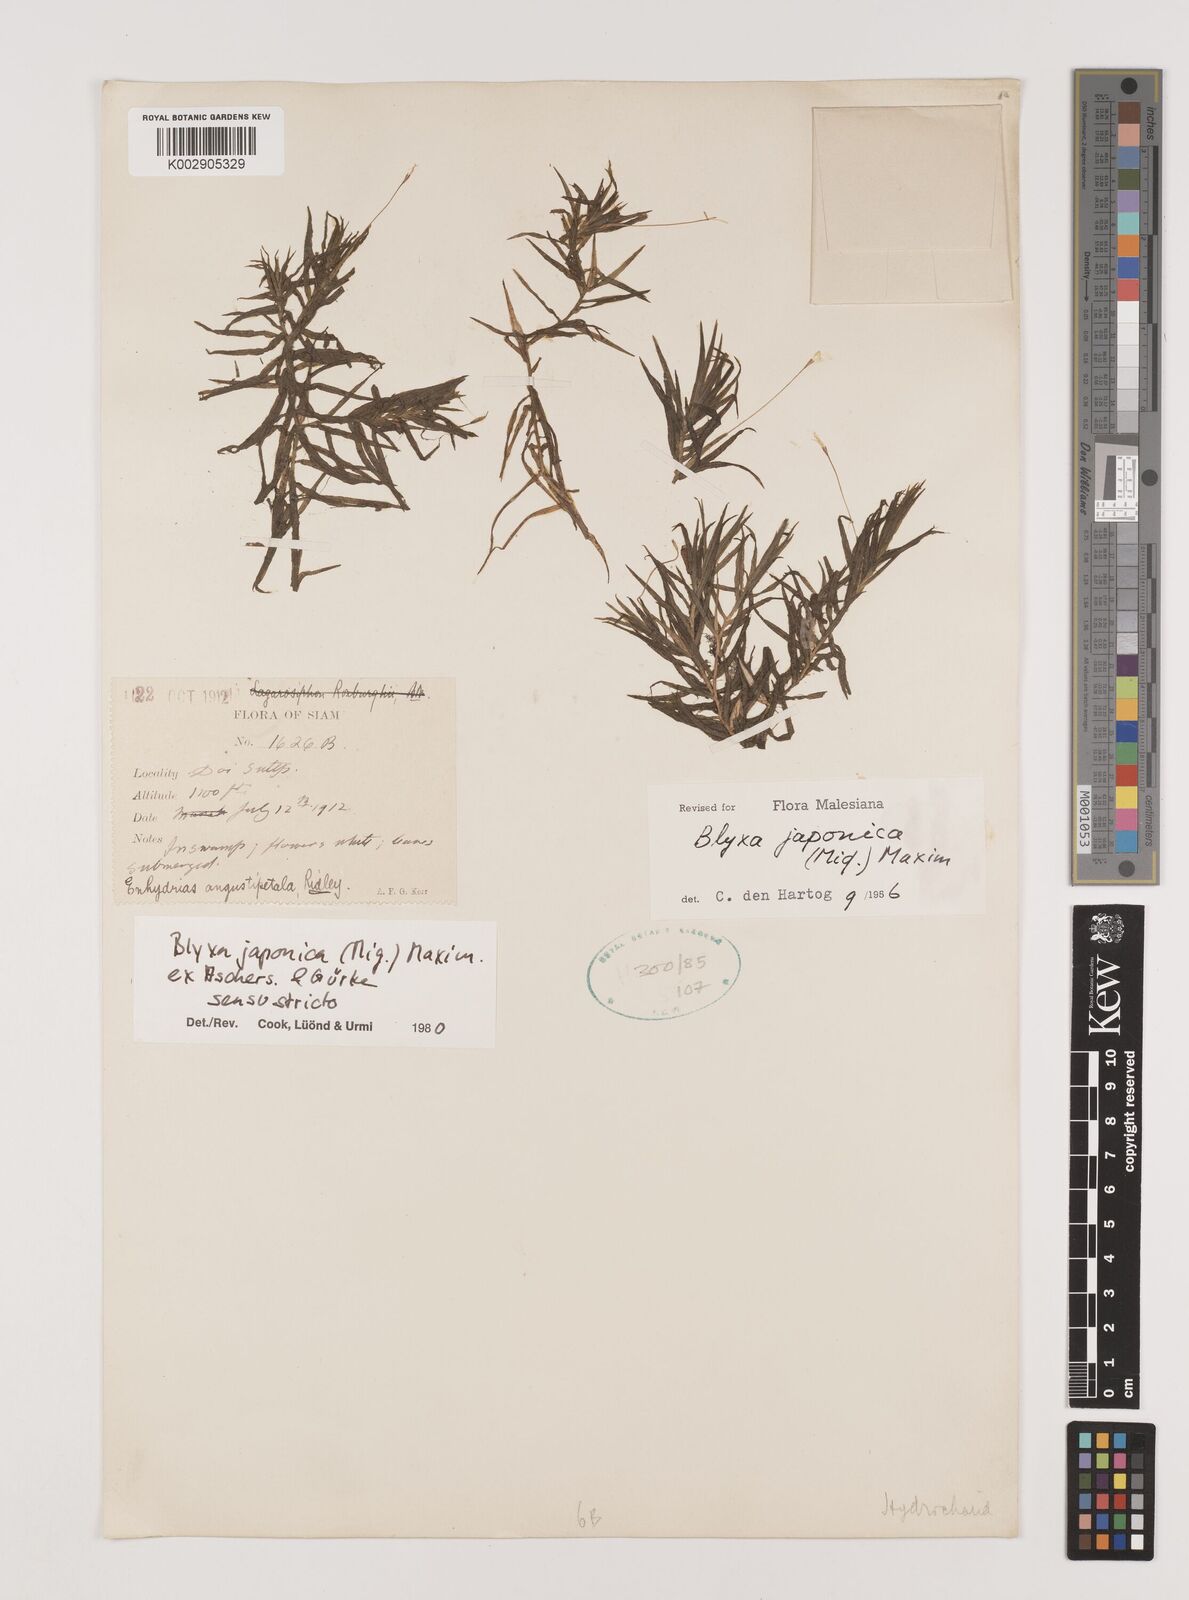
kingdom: Plantae
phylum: Tracheophyta
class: Liliopsida
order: Alismatales
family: Hydrocharitaceae
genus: Blyxa
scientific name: Blyxa japonica
